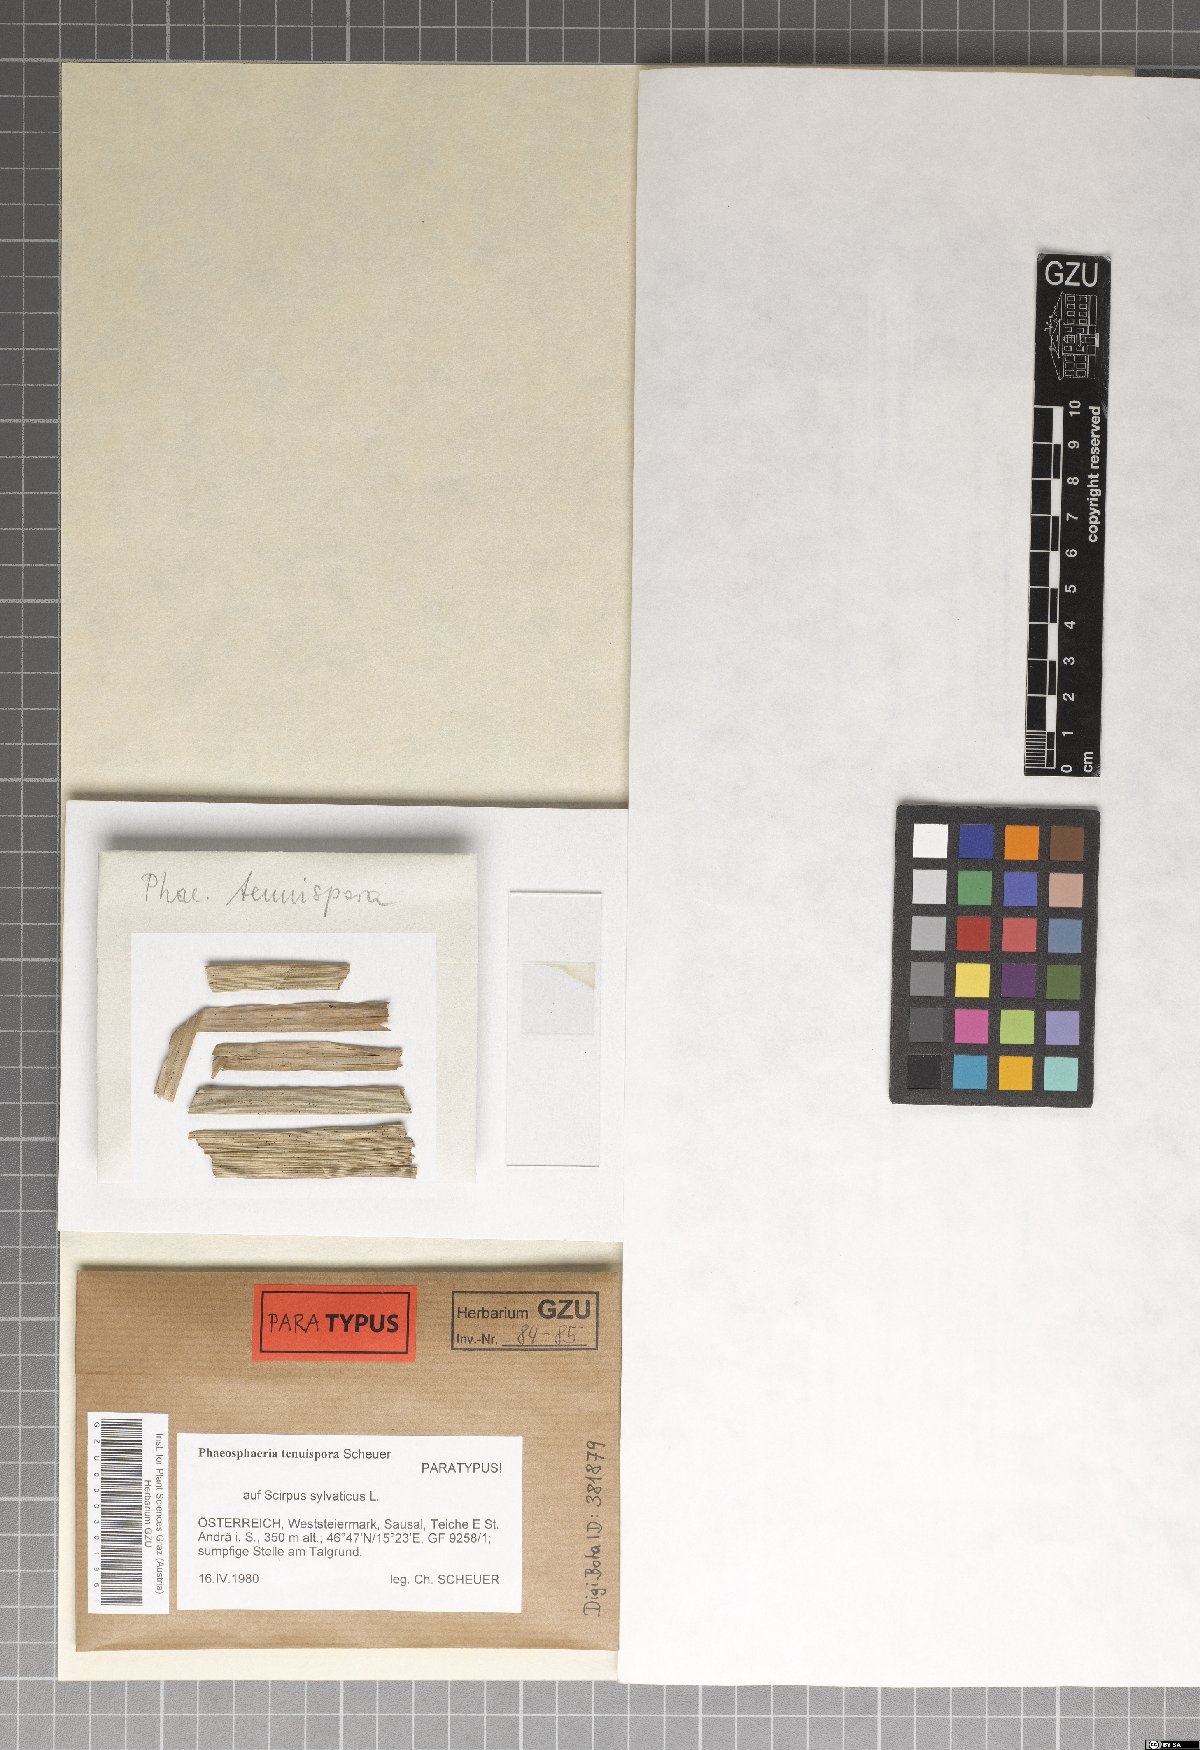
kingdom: Fungi
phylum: Ascomycota
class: Dothideomycetes
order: Pleosporales
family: Phaeosphaeriaceae
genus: Phaeosphaeria
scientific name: Phaeosphaeria tenuispora
